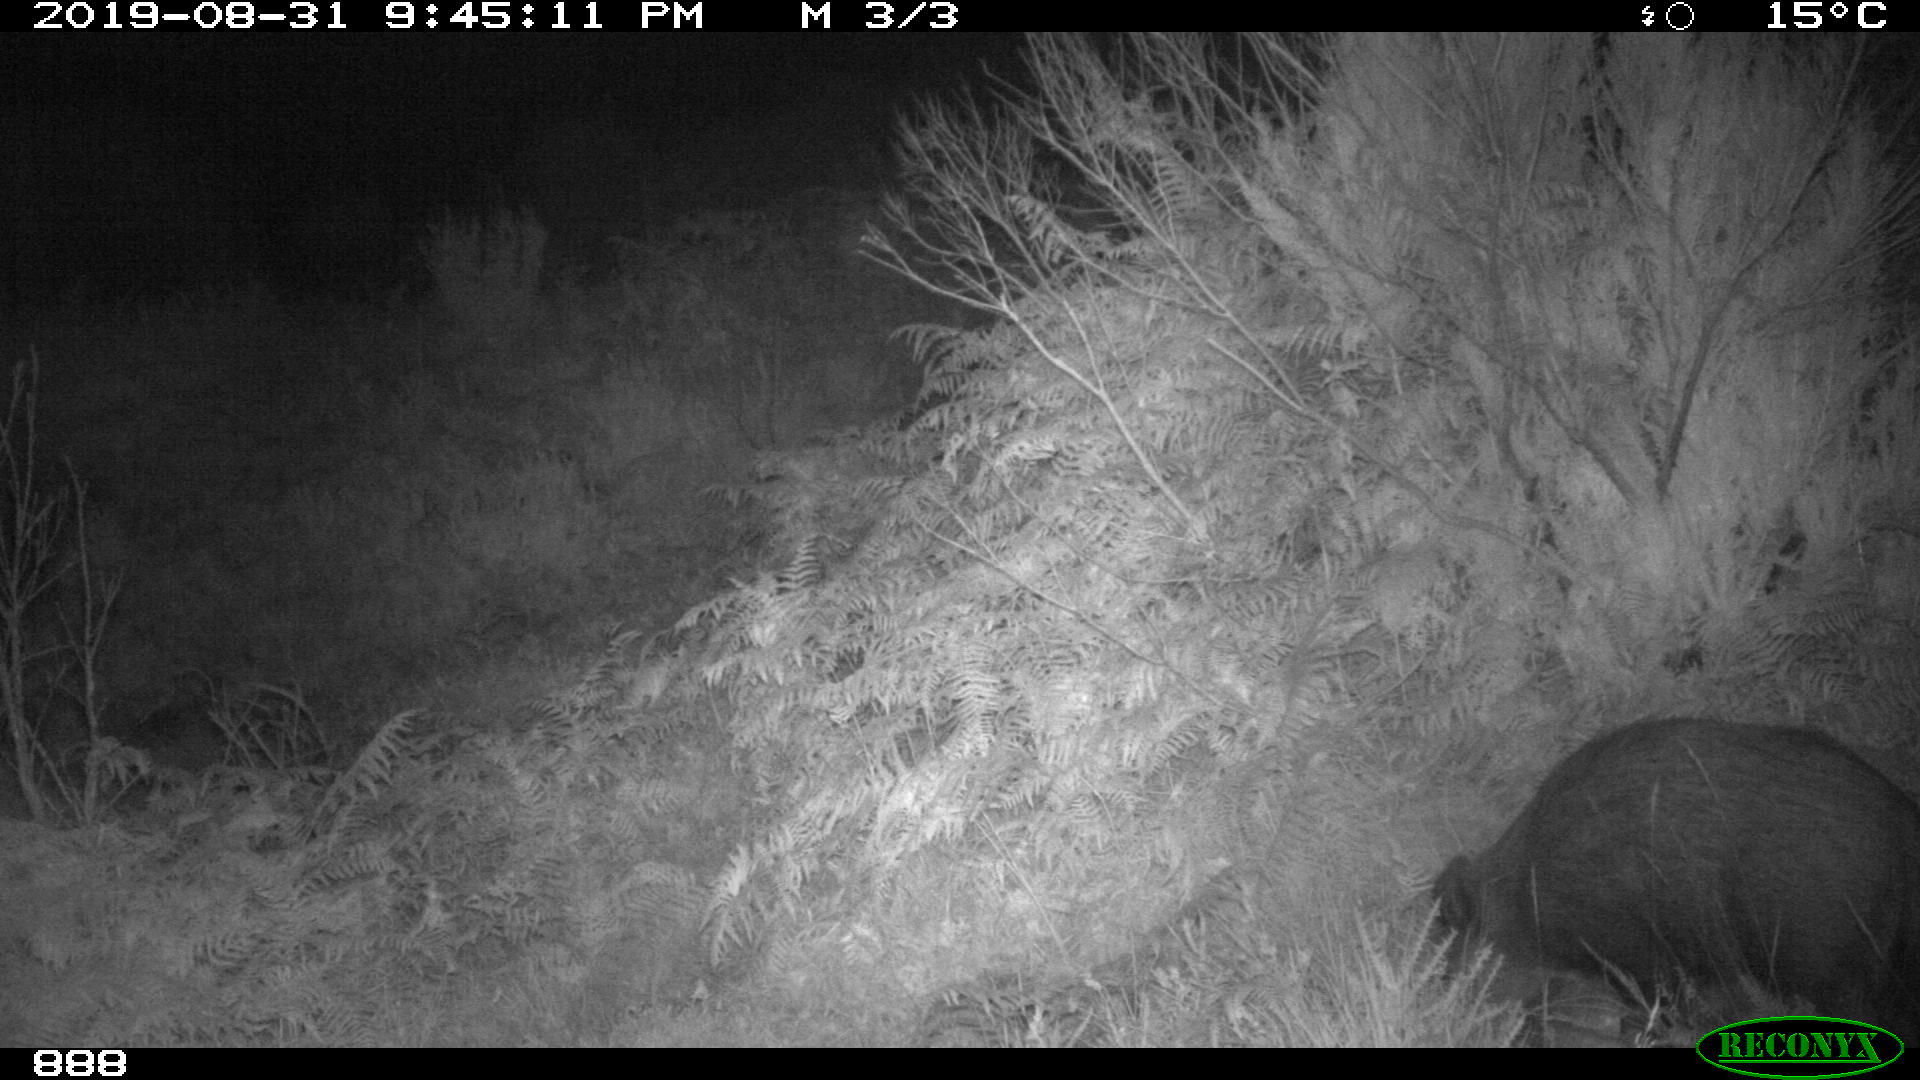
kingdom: Animalia
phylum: Chordata
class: Mammalia
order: Artiodactyla
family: Suidae
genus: Sus
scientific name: Sus scrofa
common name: Wild boar
